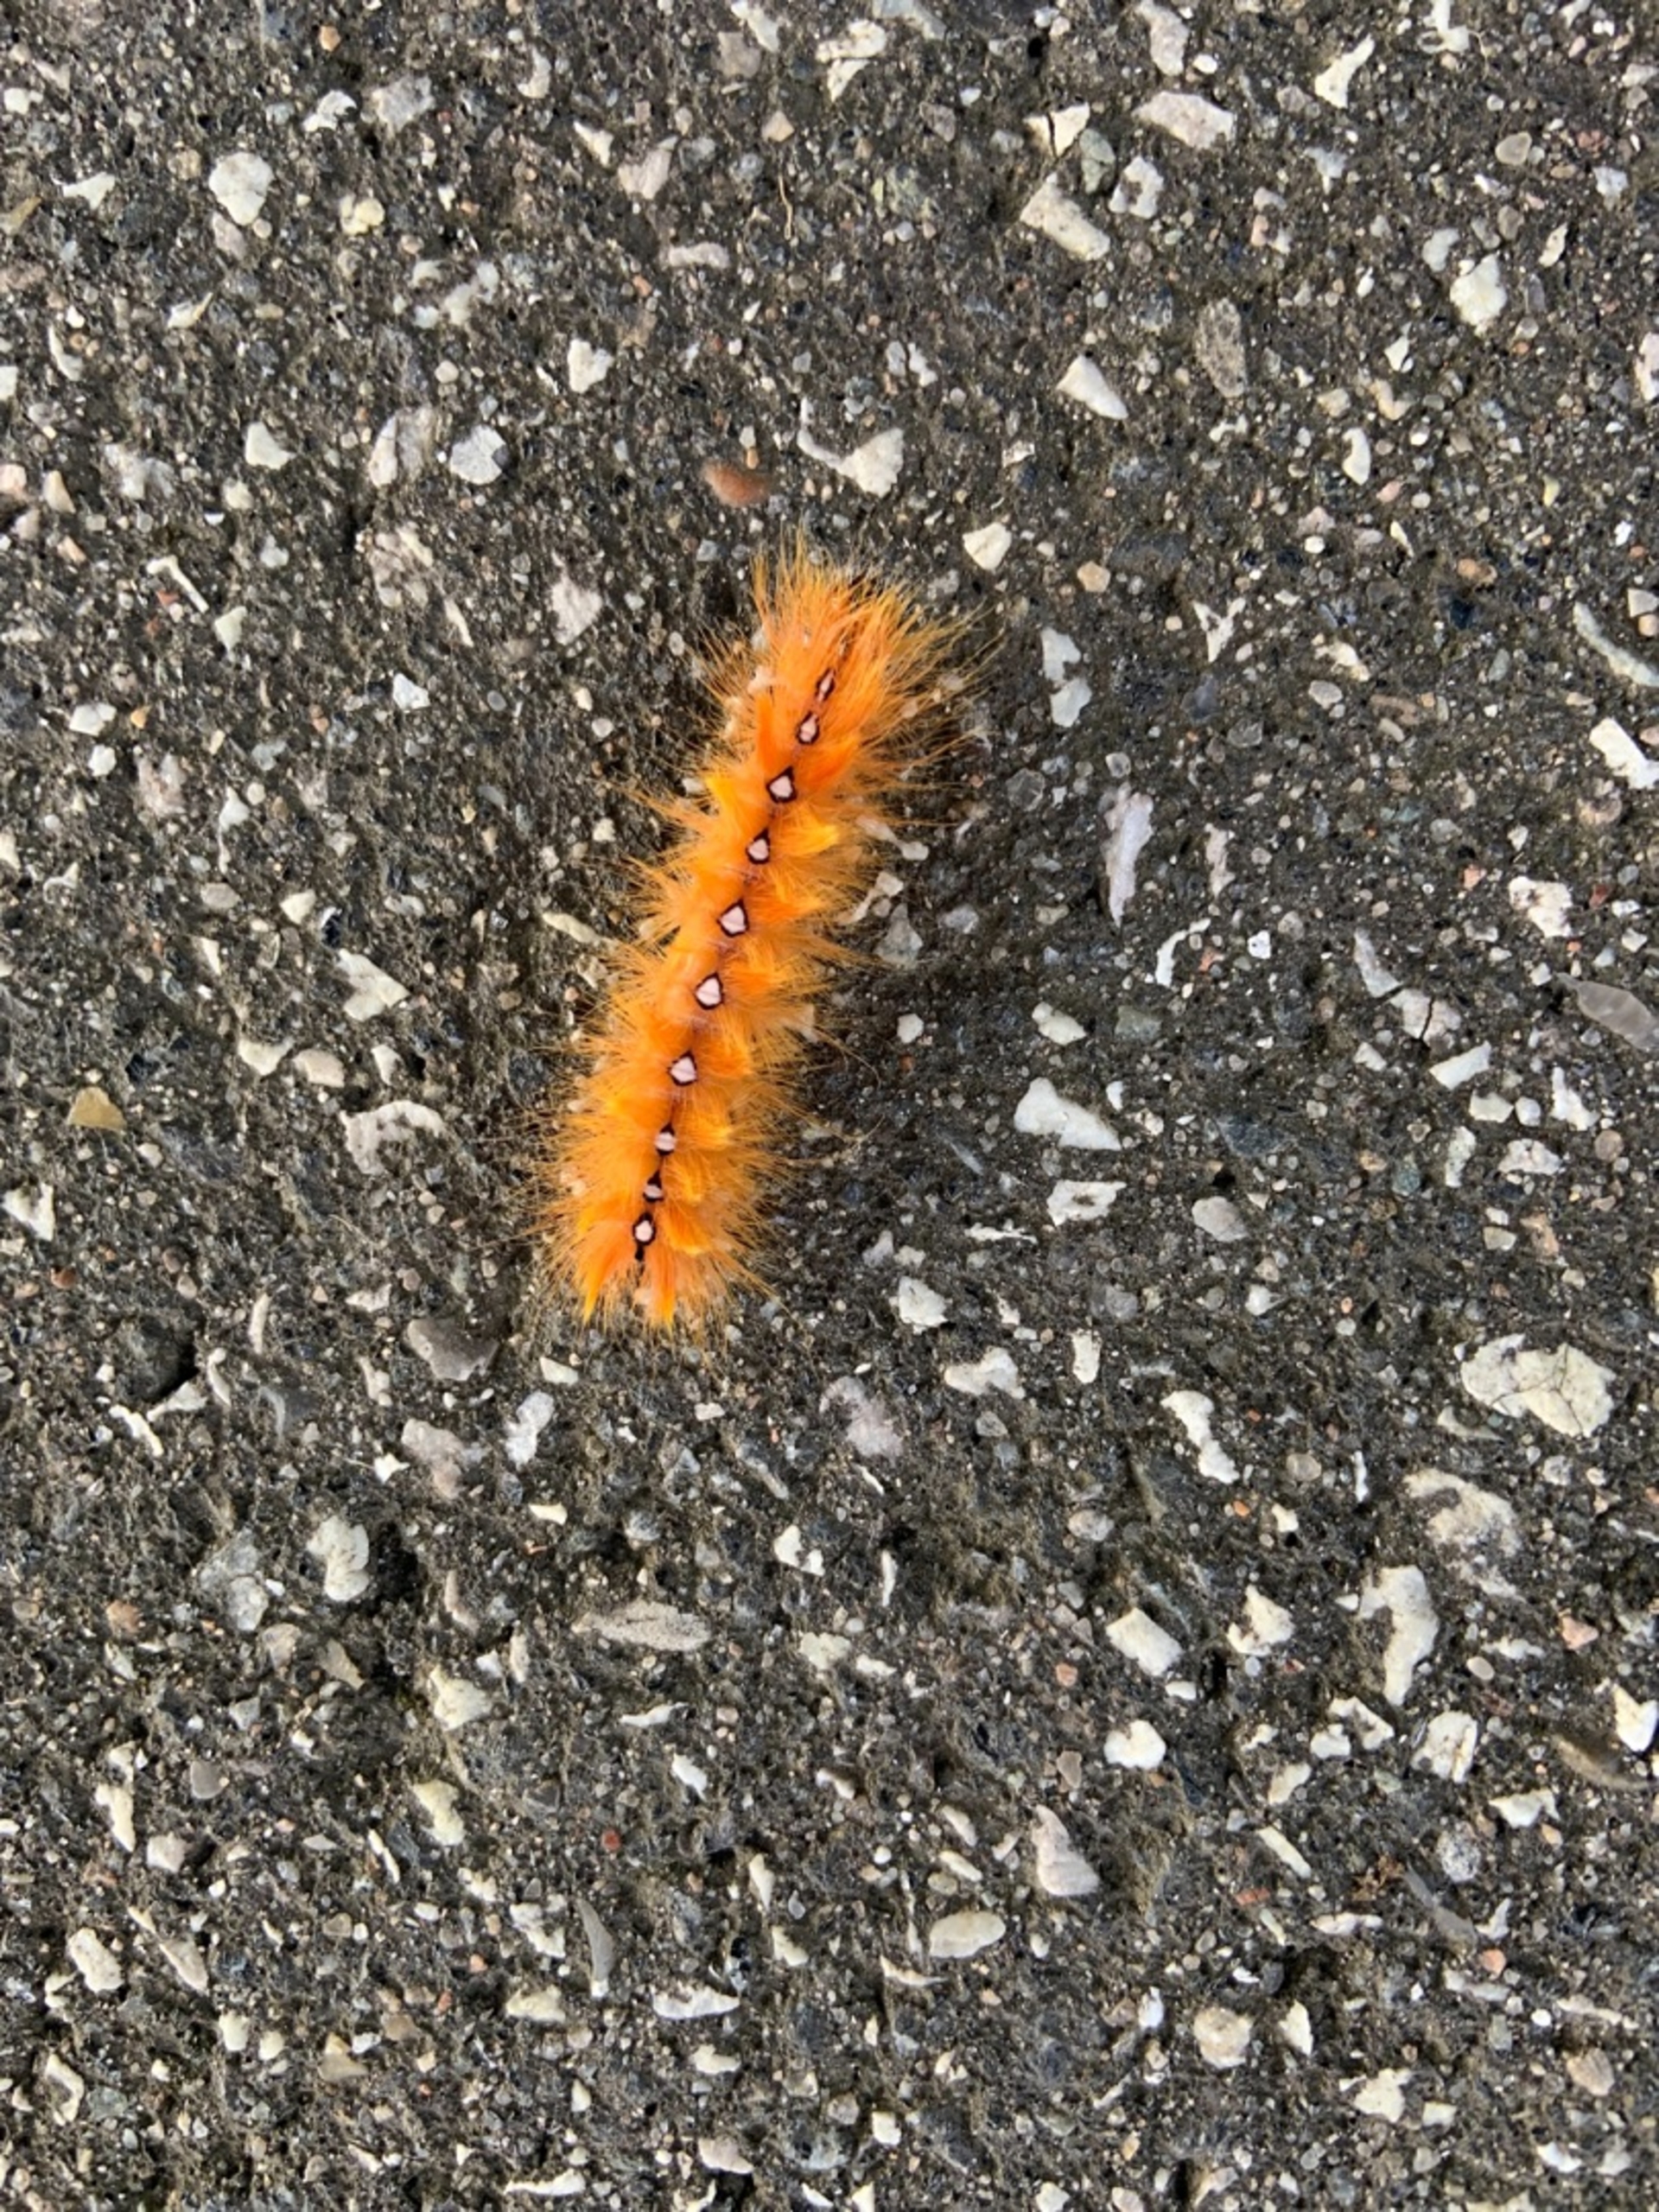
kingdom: Animalia
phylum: Arthropoda
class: Insecta
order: Lepidoptera
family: Noctuidae
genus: Acronicta
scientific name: Acronicta aceris
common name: Ahornugle
